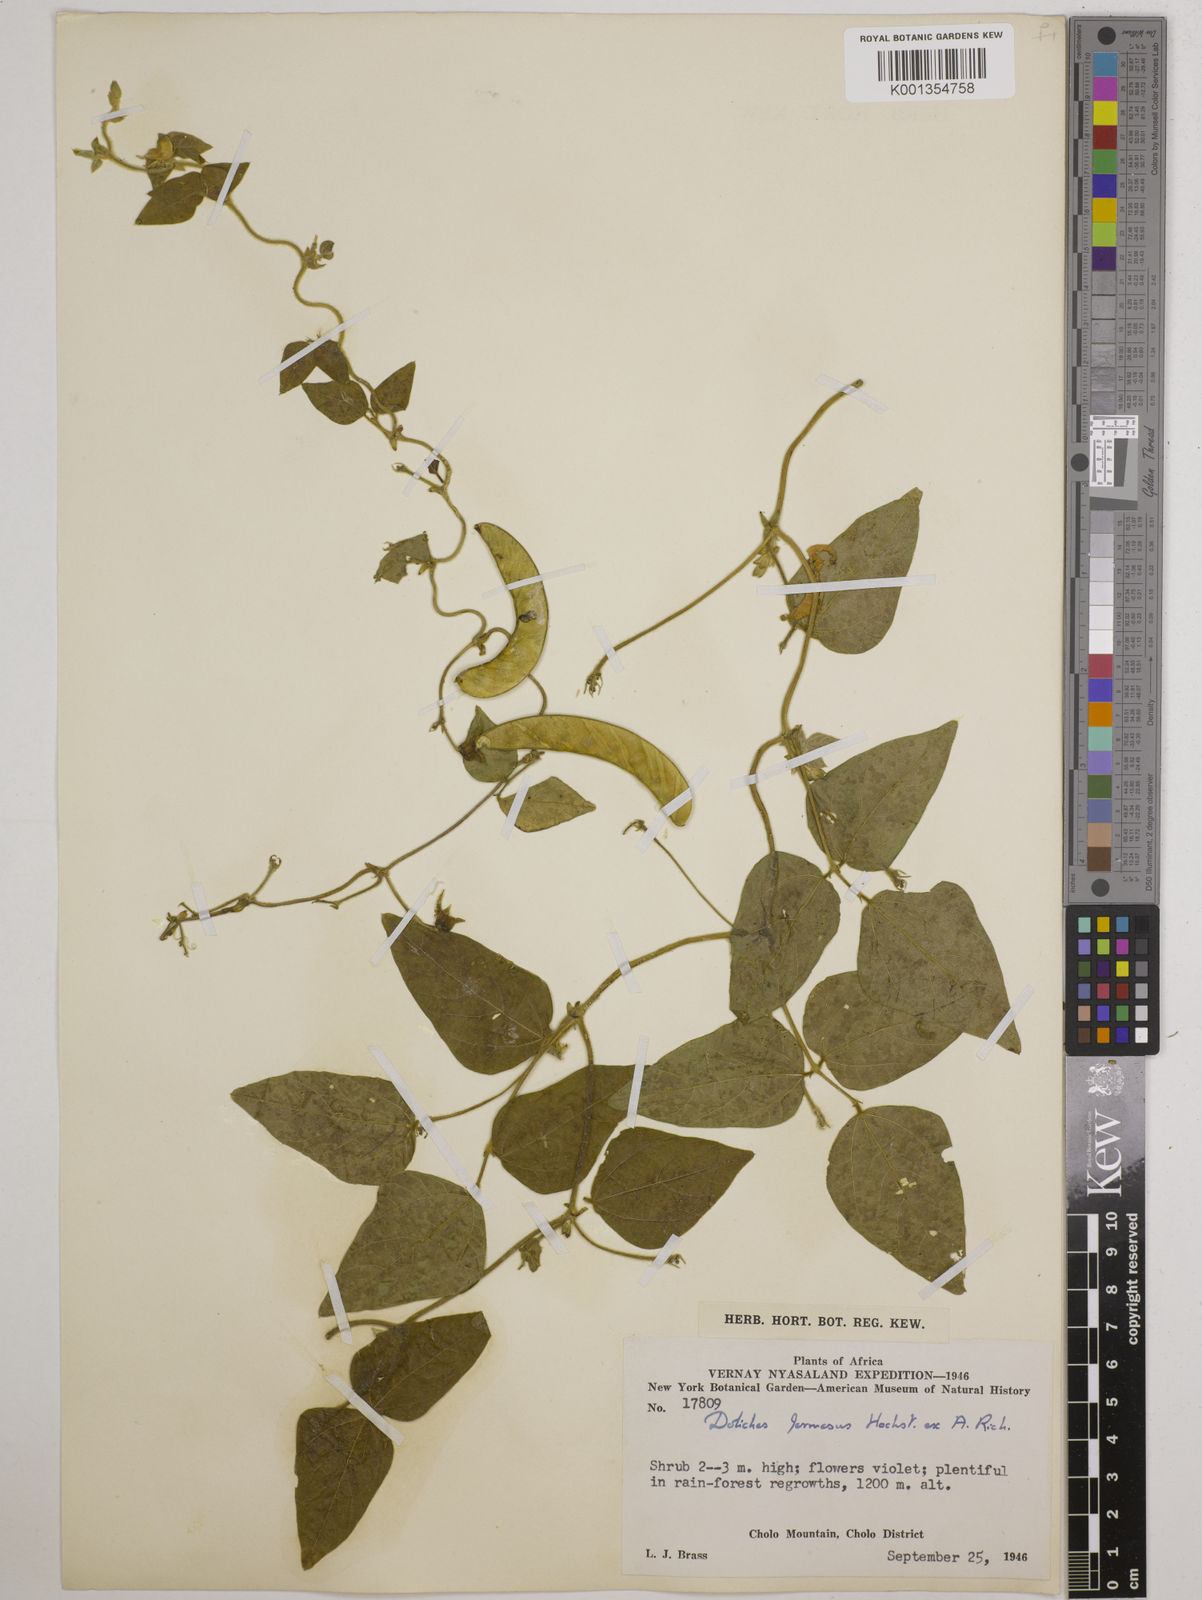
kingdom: Plantae
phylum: Tracheophyta
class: Magnoliopsida
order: Fabales
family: Fabaceae
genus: Dolichos
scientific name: Dolichos
